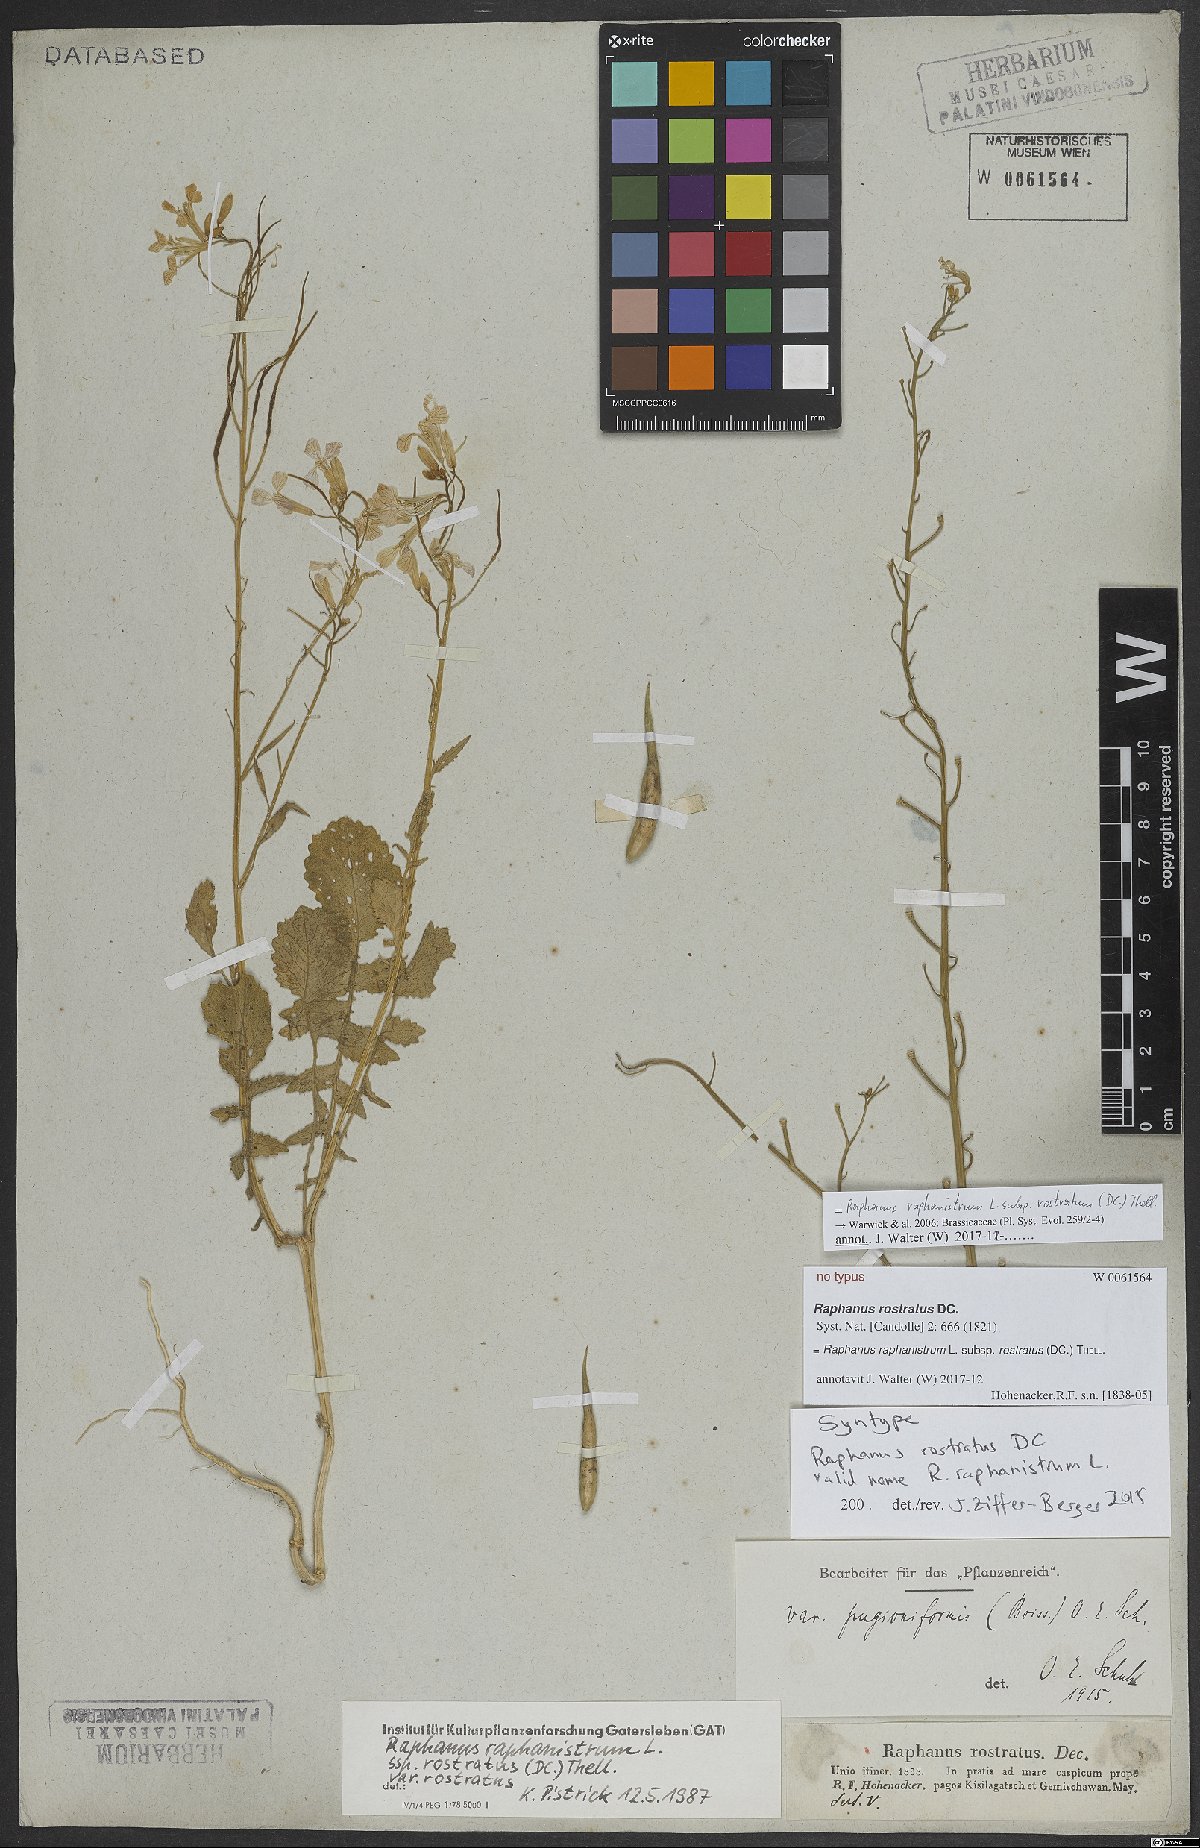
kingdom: Plantae
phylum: Tracheophyta
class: Magnoliopsida
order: Brassicales
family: Brassicaceae
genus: Raphanus
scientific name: Raphanus raphanistrum
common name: Wild radish
